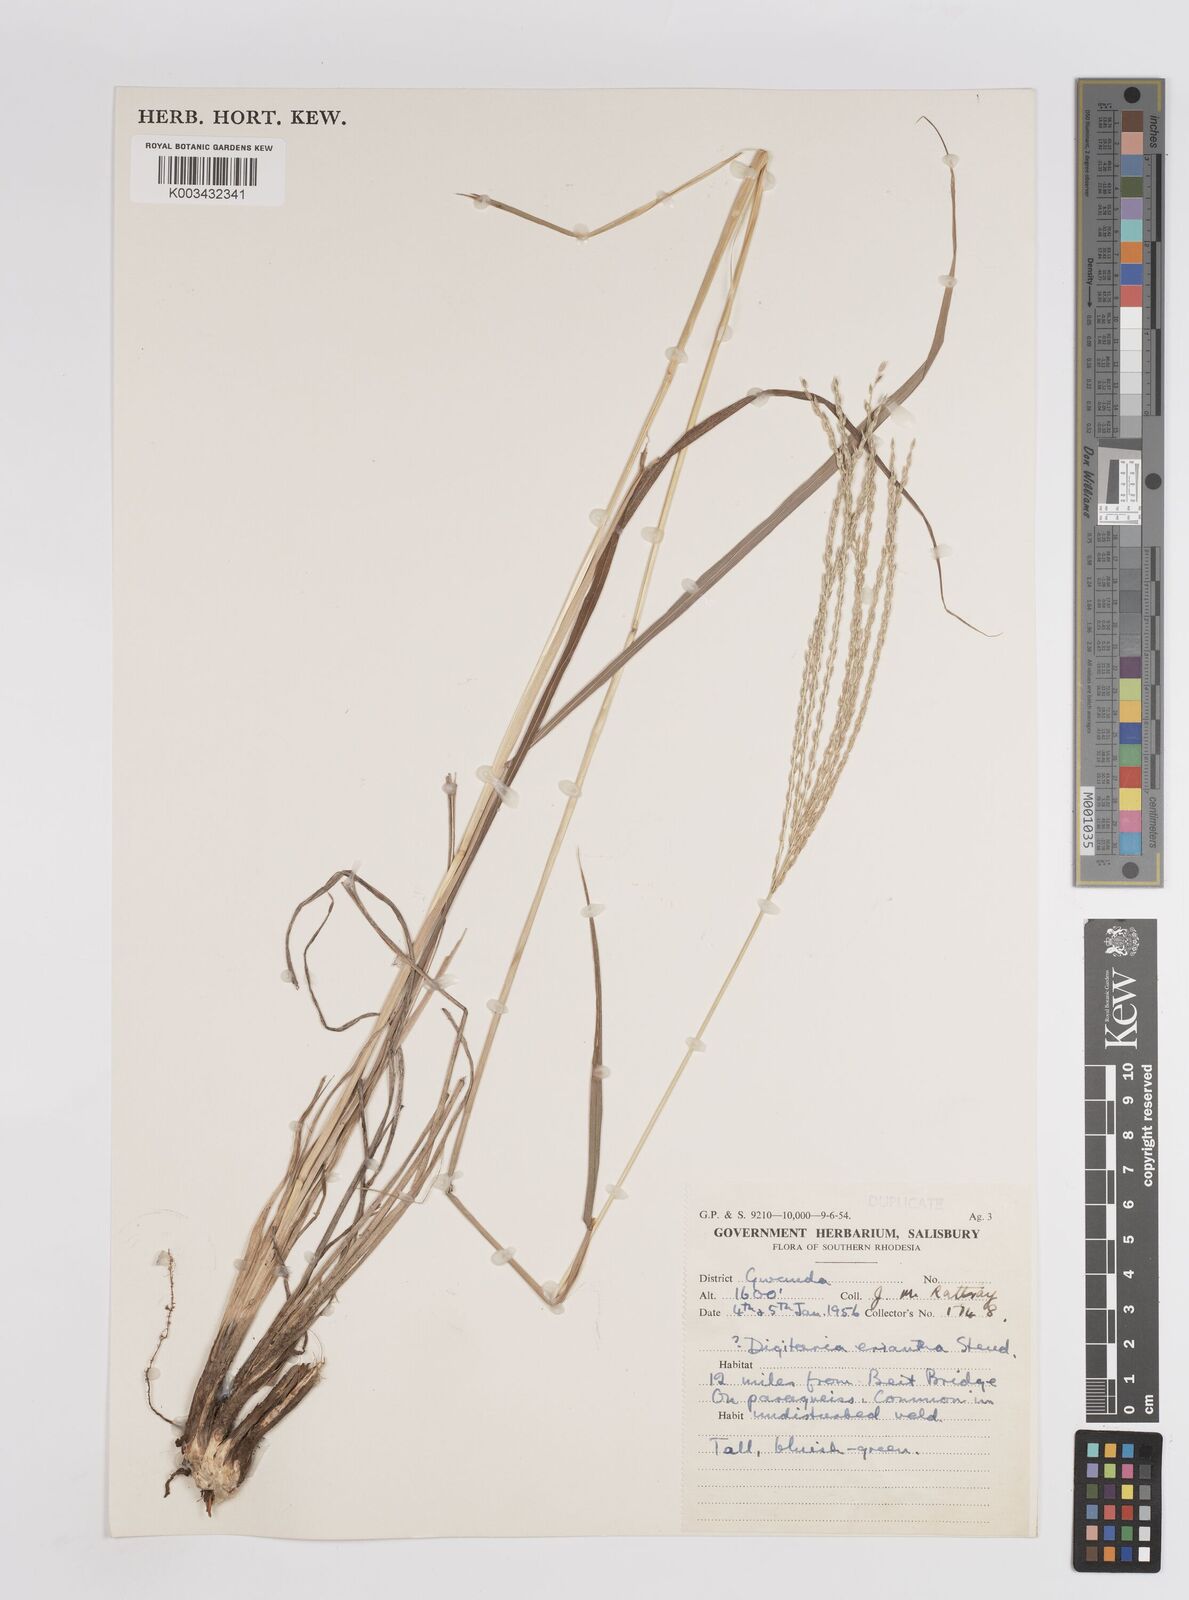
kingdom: Plantae
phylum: Tracheophyta
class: Liliopsida
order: Poales
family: Poaceae
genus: Digitaria
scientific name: Digitaria eriantha
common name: Digitgrass
